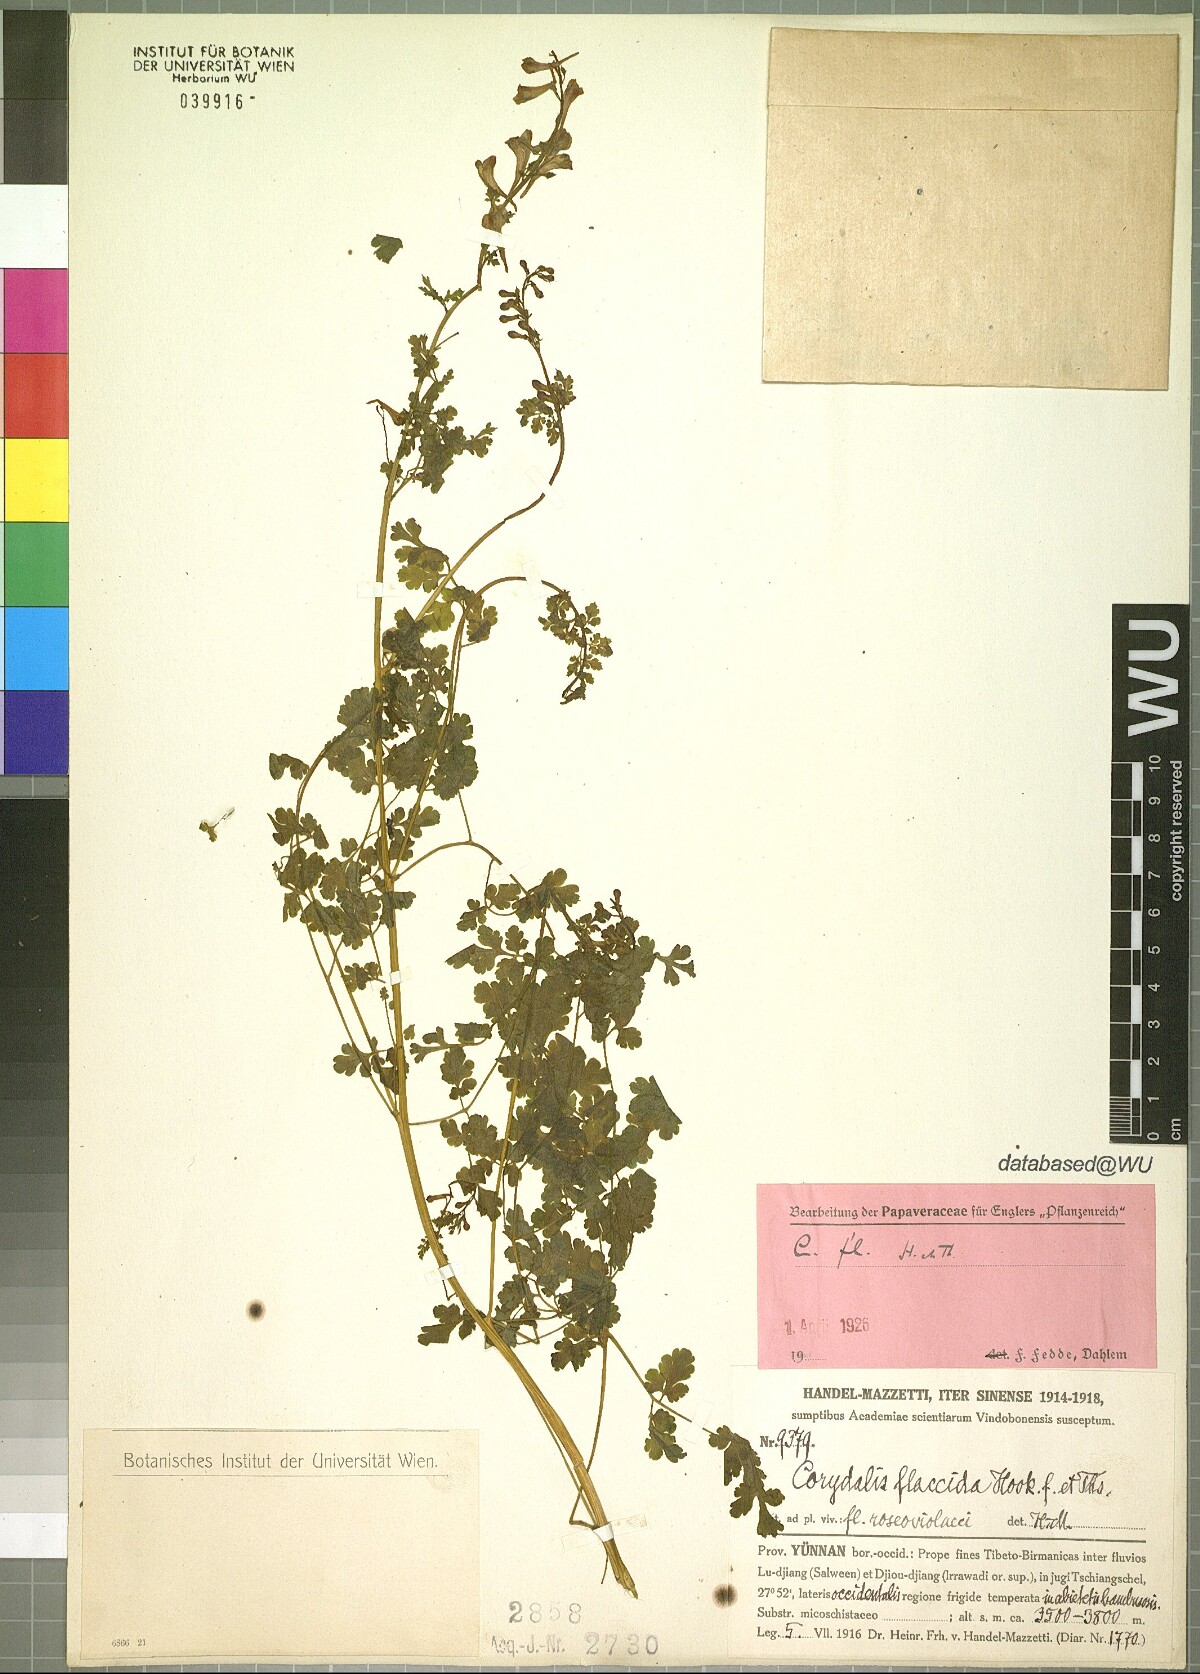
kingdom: Plantae
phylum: Tracheophyta
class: Magnoliopsida
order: Ranunculales
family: Papaveraceae
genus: Corydalis
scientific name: Corydalis flaccida
